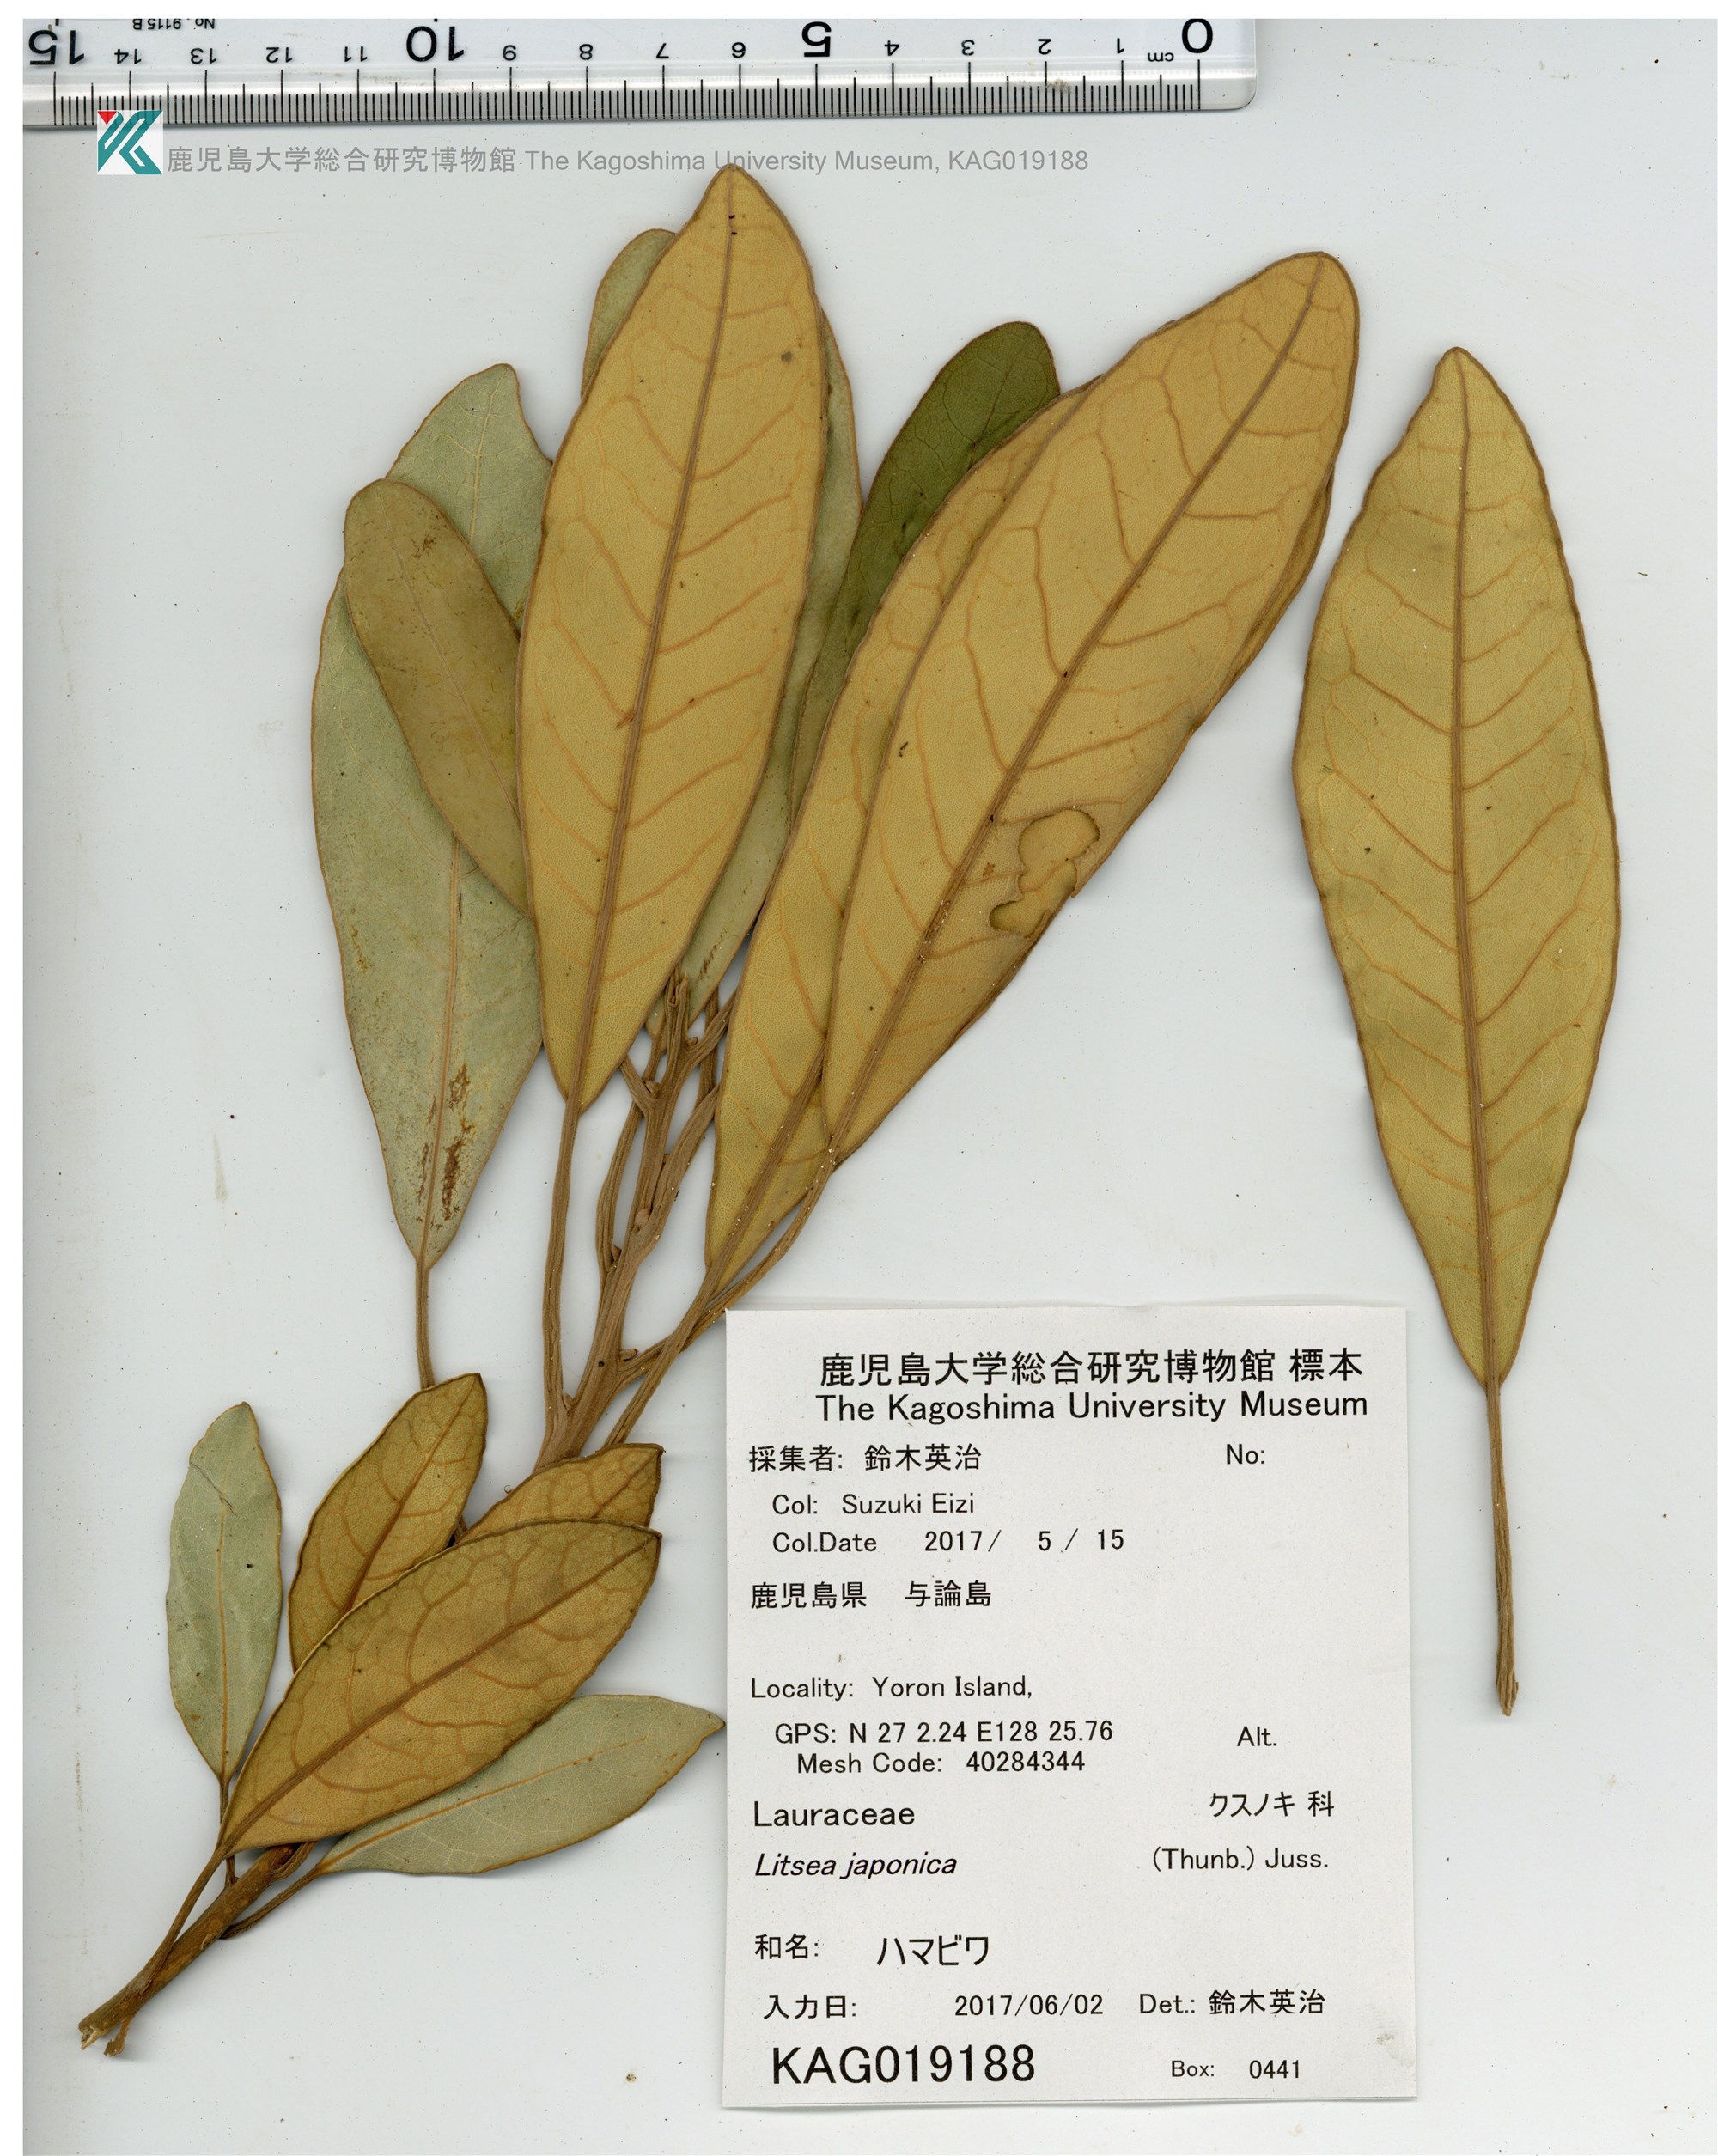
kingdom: Plantae
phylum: Tracheophyta
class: Magnoliopsida
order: Laurales
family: Lauraceae
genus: Litsea
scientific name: Litsea japonica
